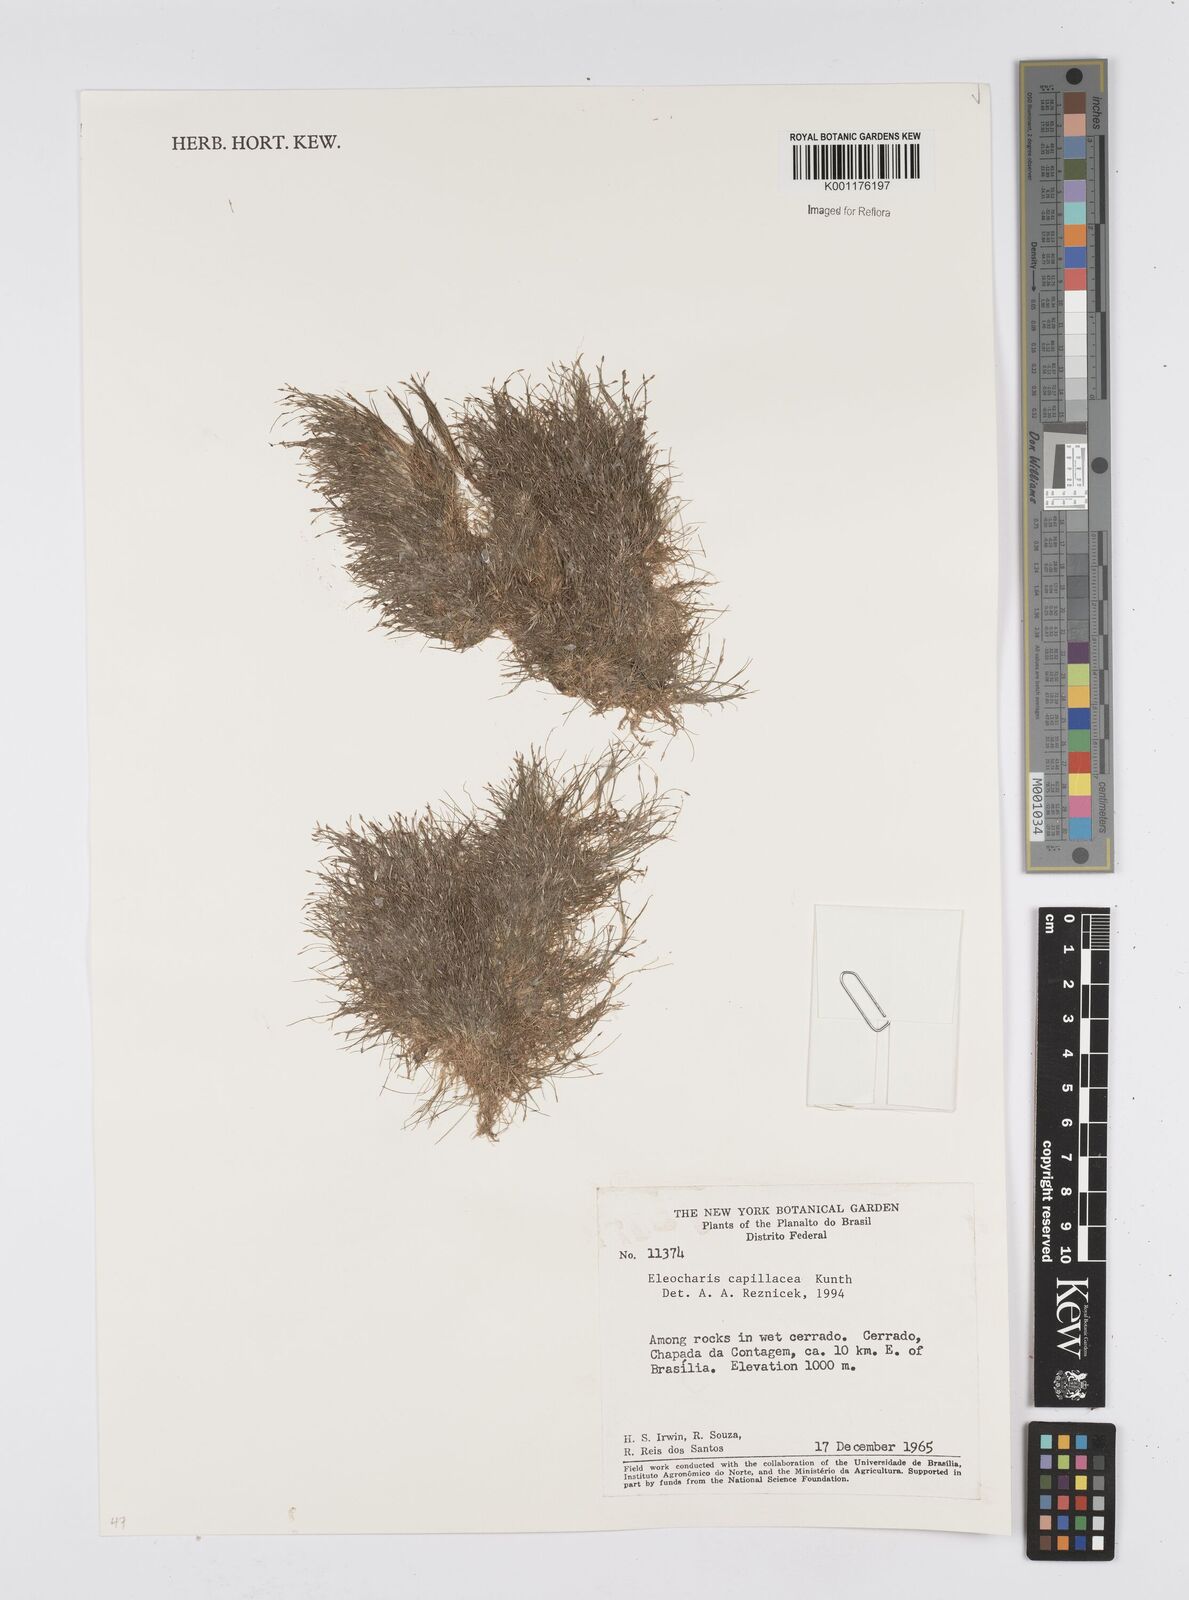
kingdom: Plantae
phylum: Tracheophyta
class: Liliopsida
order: Poales
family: Cyperaceae
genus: Eleocharis
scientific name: Eleocharis capillacea
